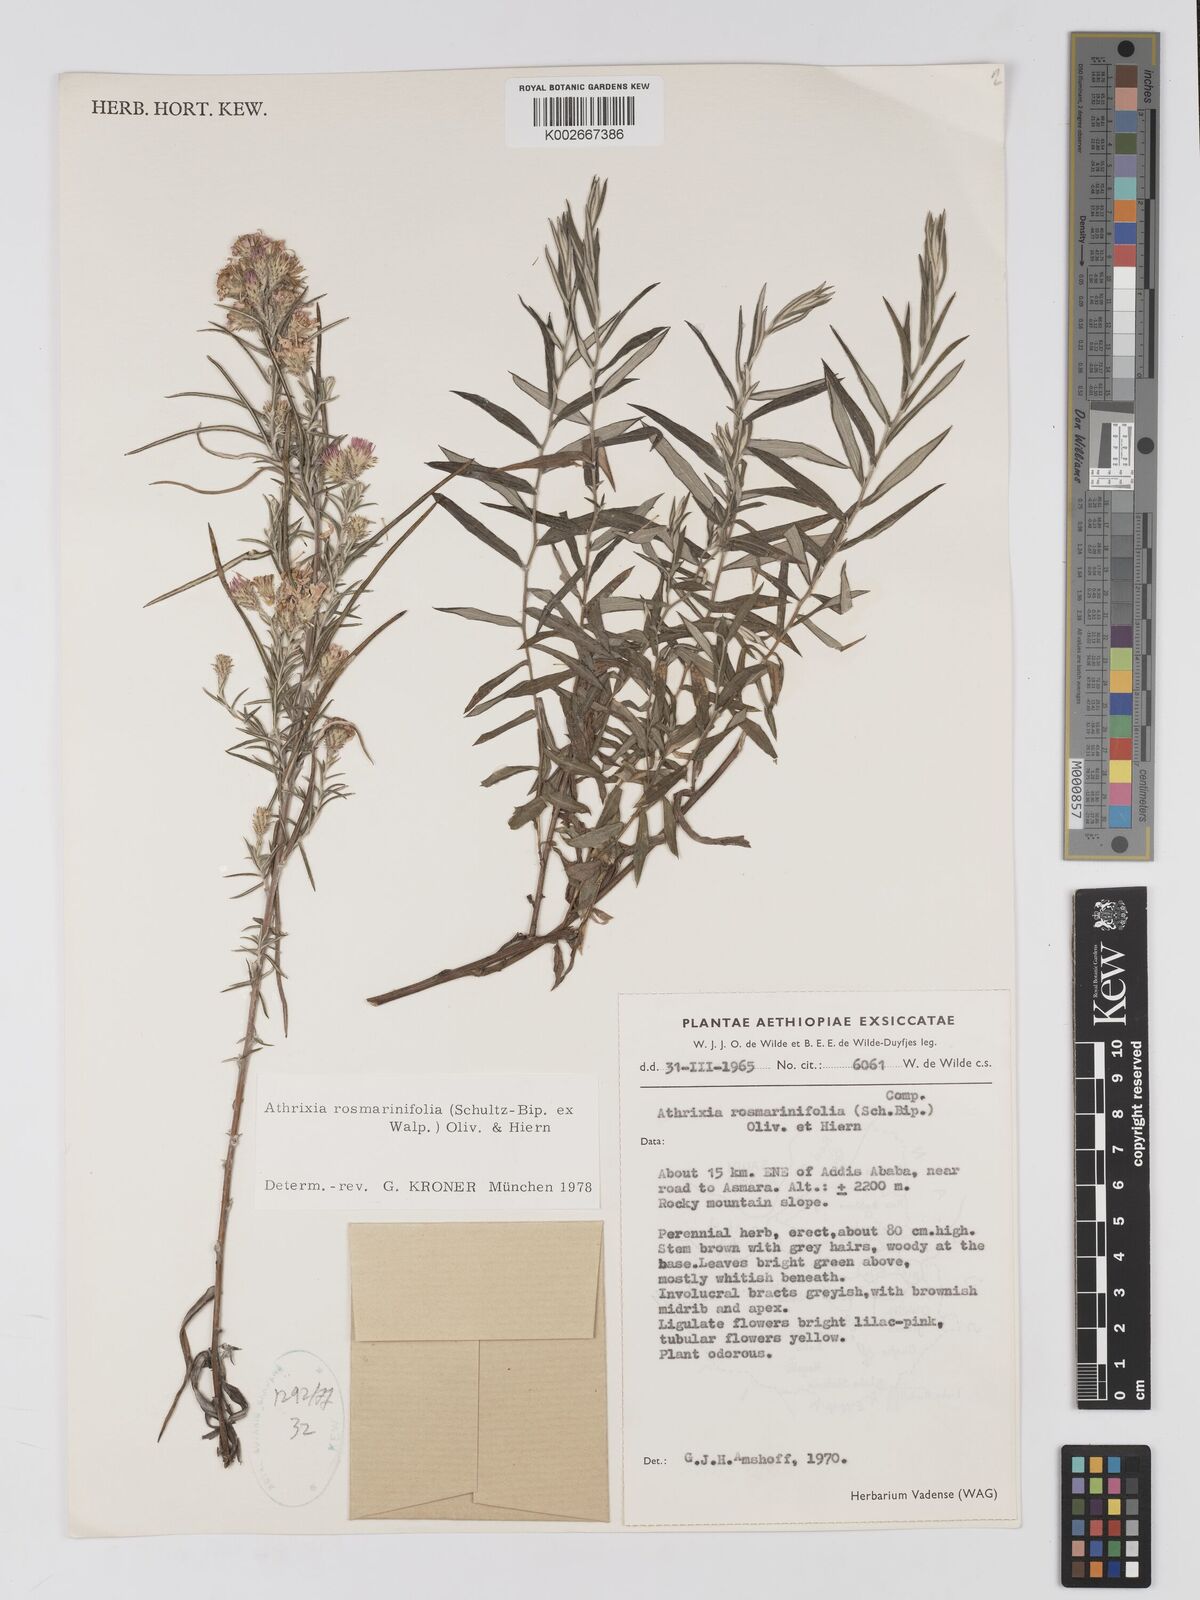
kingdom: Plantae
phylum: Tracheophyta
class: Magnoliopsida
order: Asterales
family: Asteraceae
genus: Athrixia
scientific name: Athrixia rosmarinifolia
